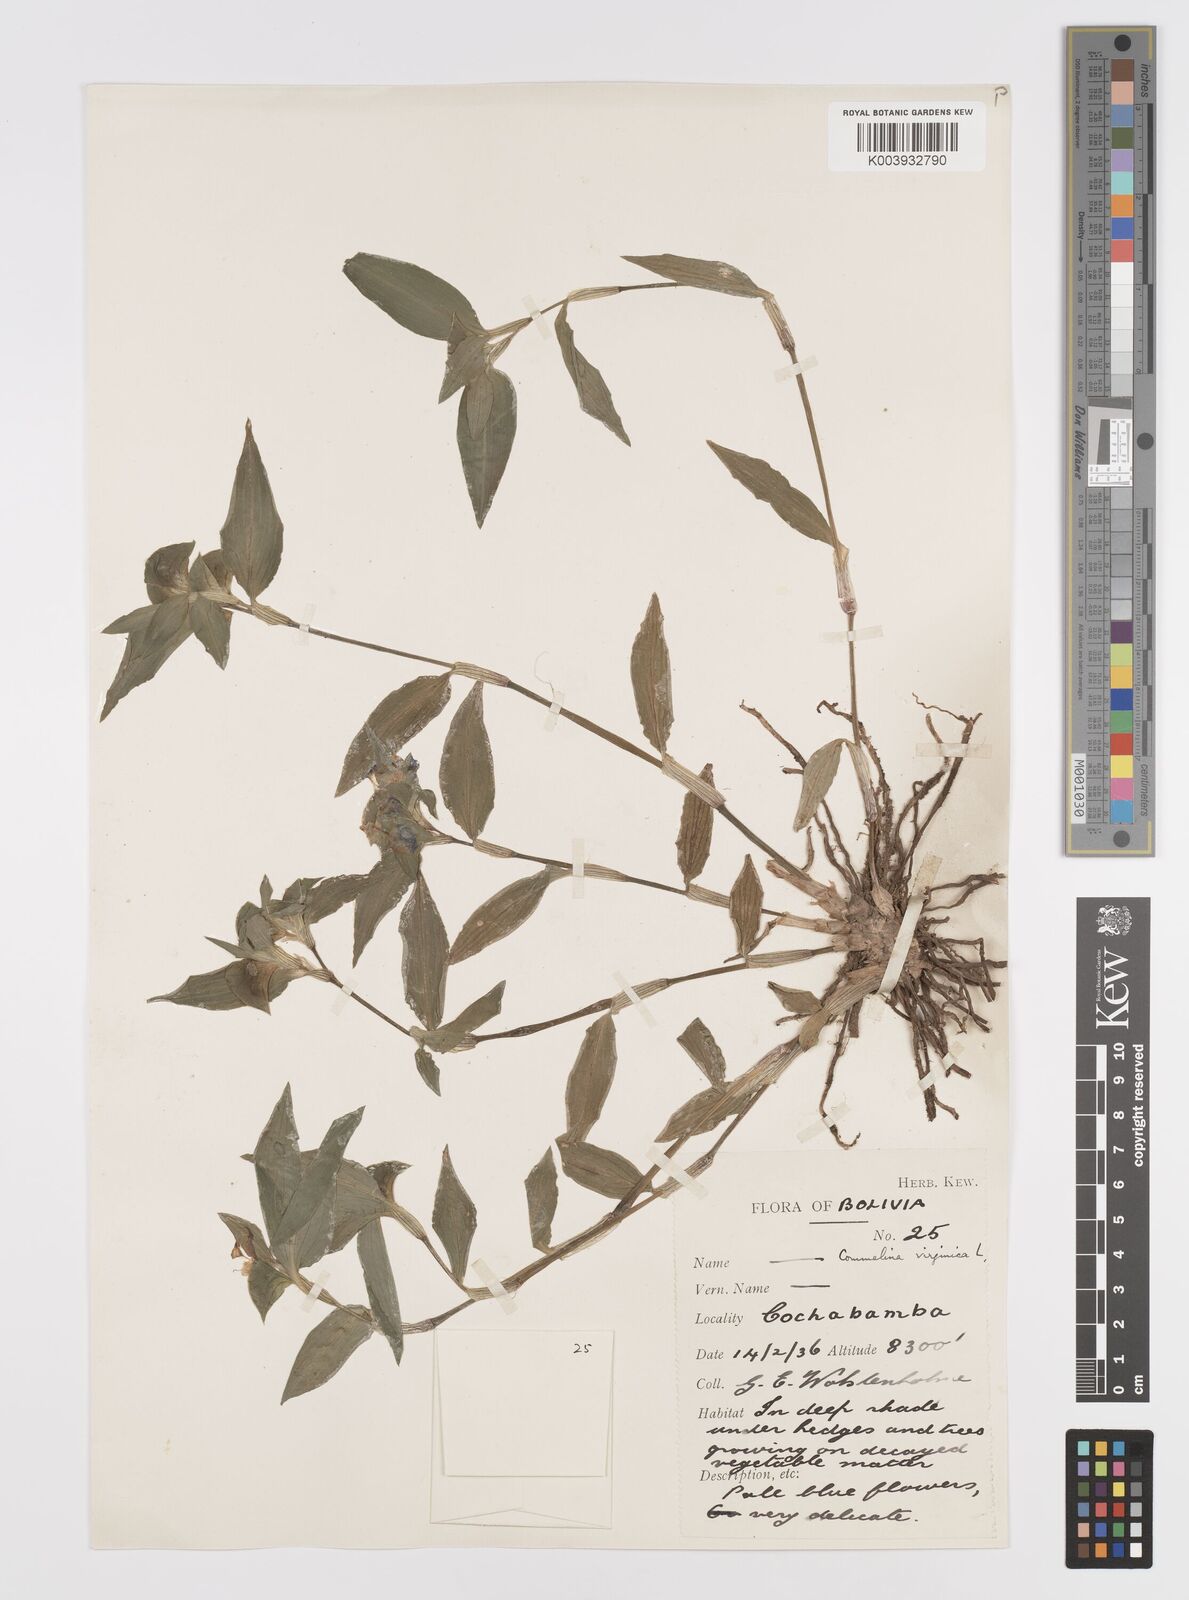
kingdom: Plantae
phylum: Tracheophyta
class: Liliopsida
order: Commelinales
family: Commelinaceae
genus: Commelina
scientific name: Commelina virginica
